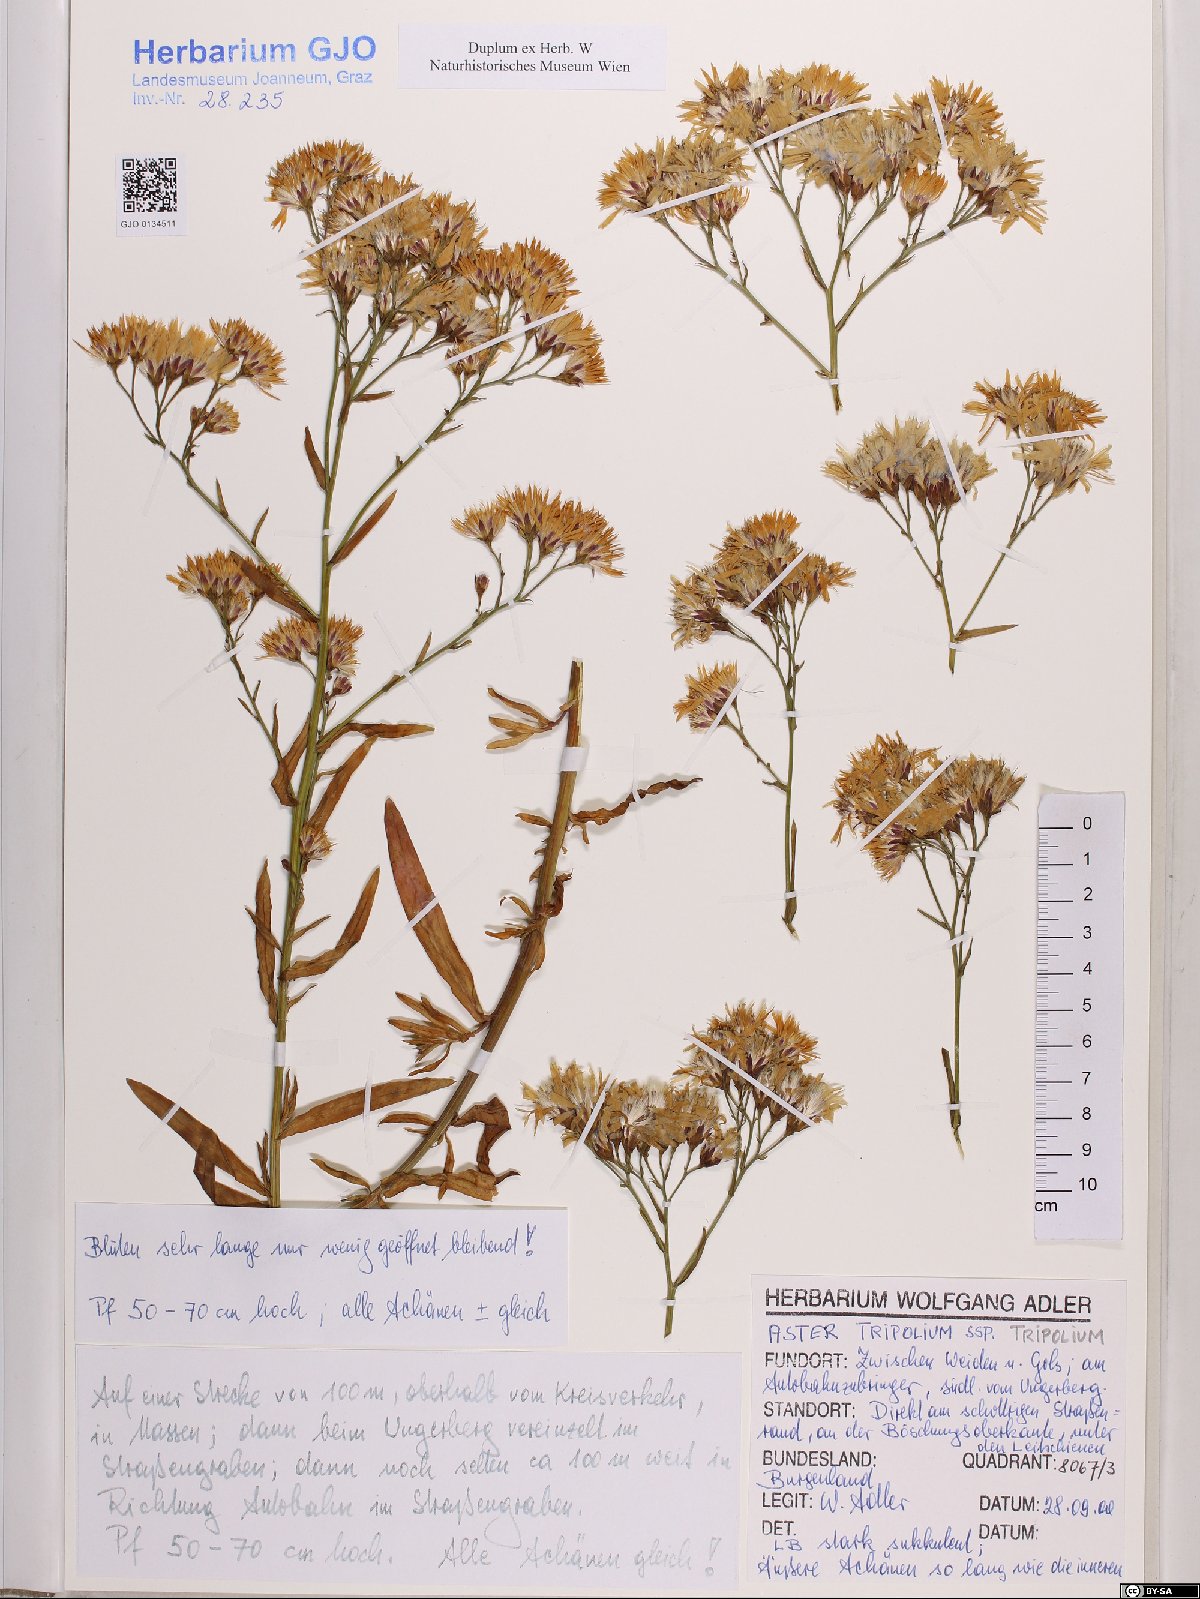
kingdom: Plantae
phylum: Tracheophyta
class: Magnoliopsida
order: Asterales
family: Asteraceae
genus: Tripolium
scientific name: Tripolium pannonicum
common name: Sea aster
